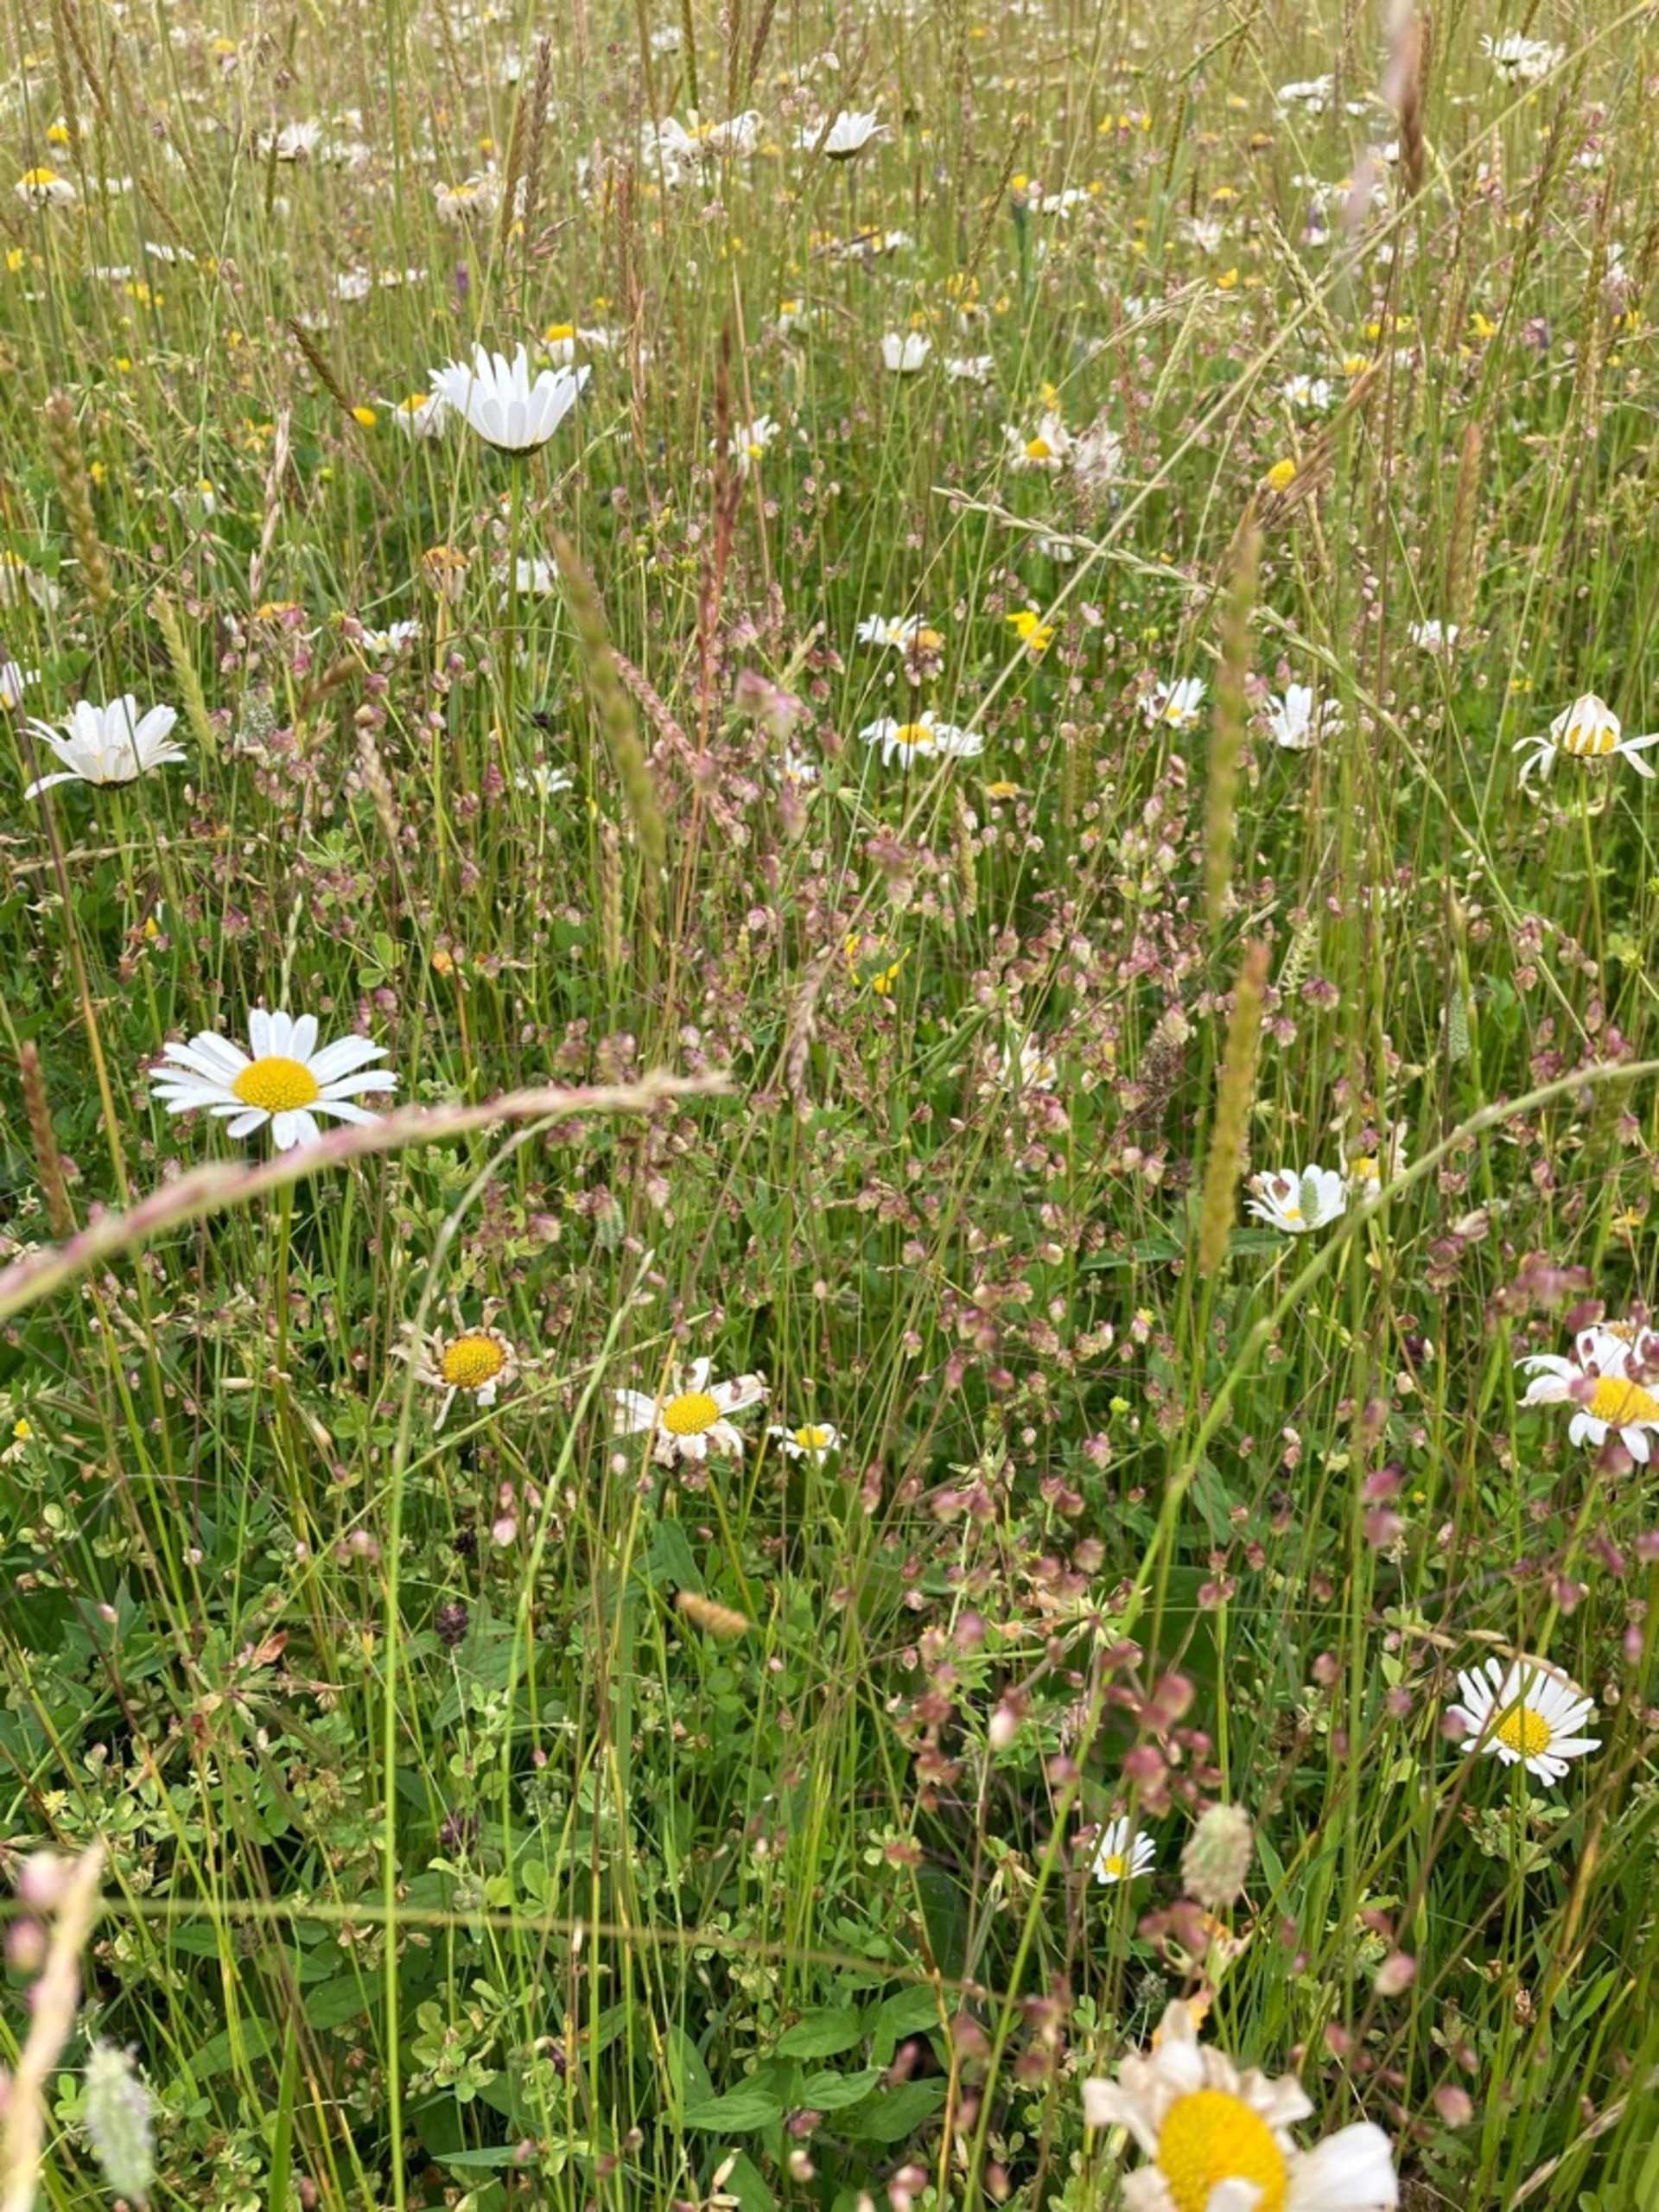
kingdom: Plantae
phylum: Tracheophyta
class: Liliopsida
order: Poales
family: Poaceae
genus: Briza
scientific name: Briza media
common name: Hjertegræs
